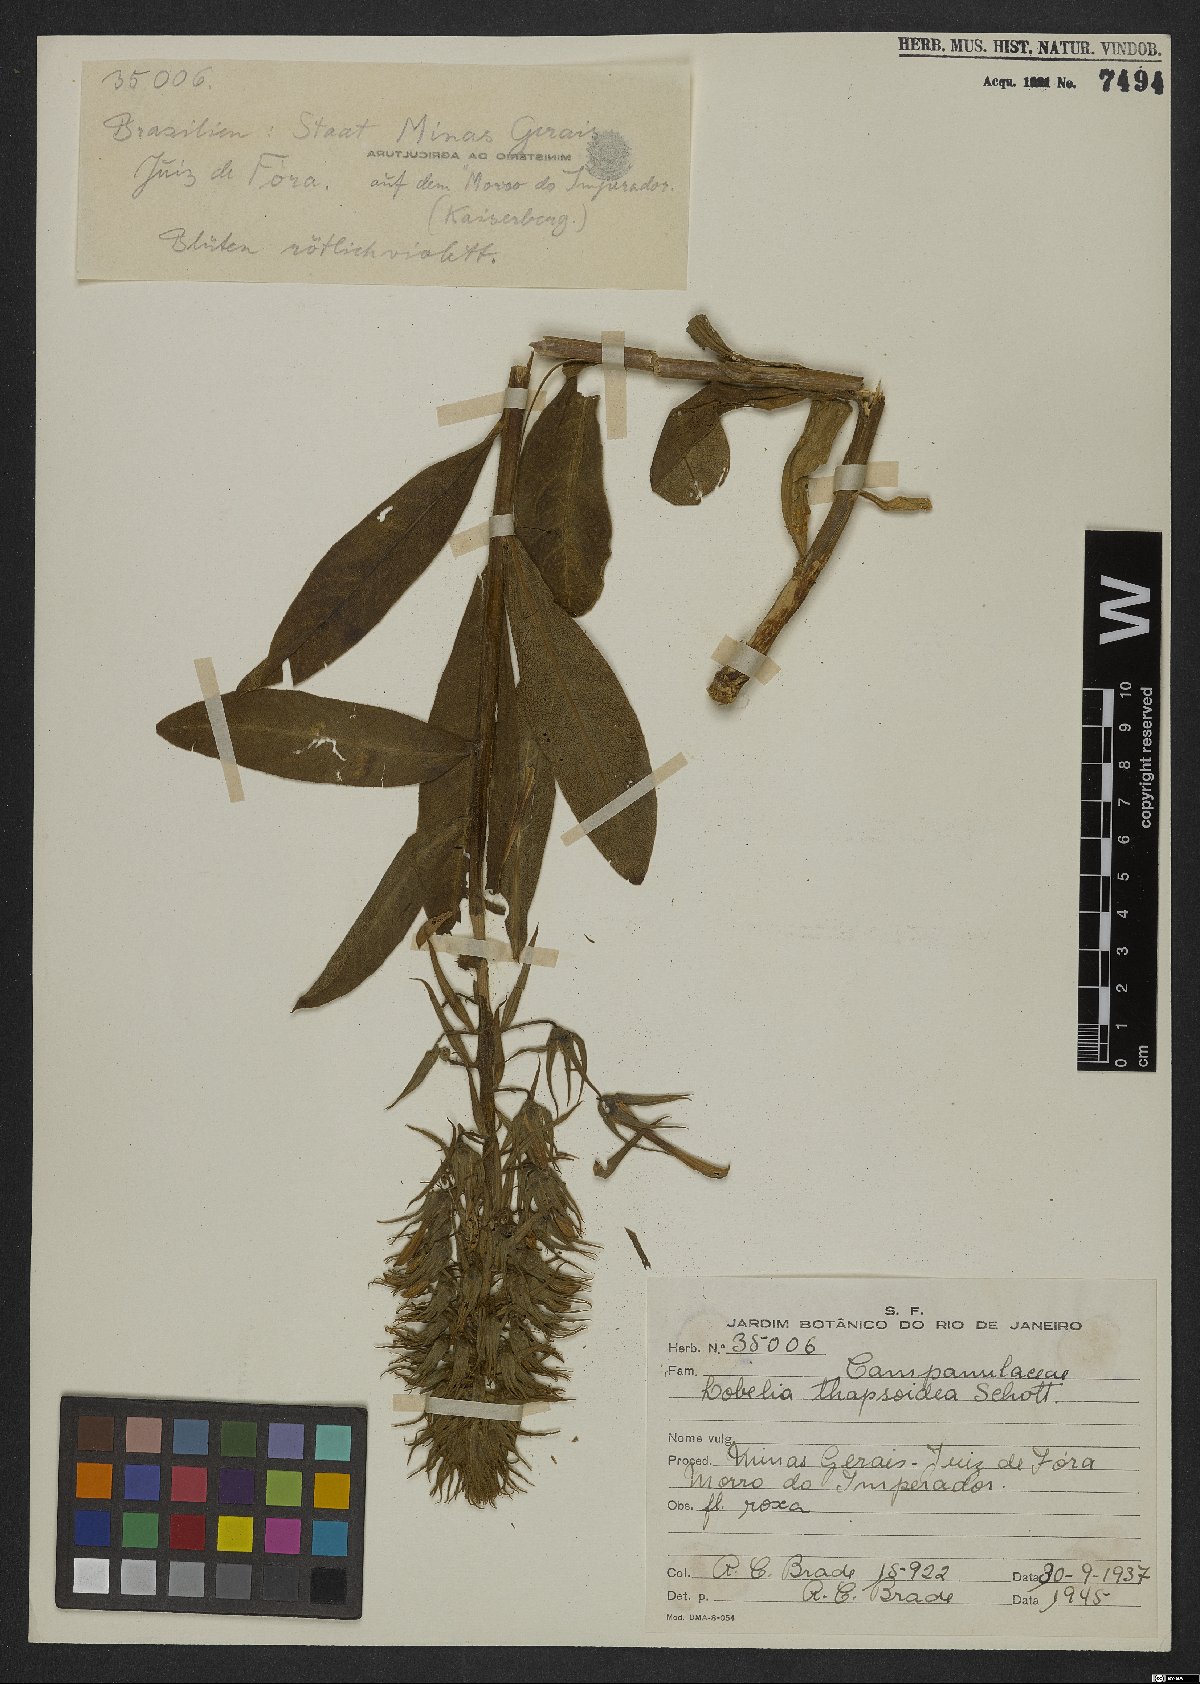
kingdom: Plantae
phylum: Tracheophyta
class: Magnoliopsida
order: Asterales
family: Campanulaceae
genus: Lobelia
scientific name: Lobelia thapsoidea
